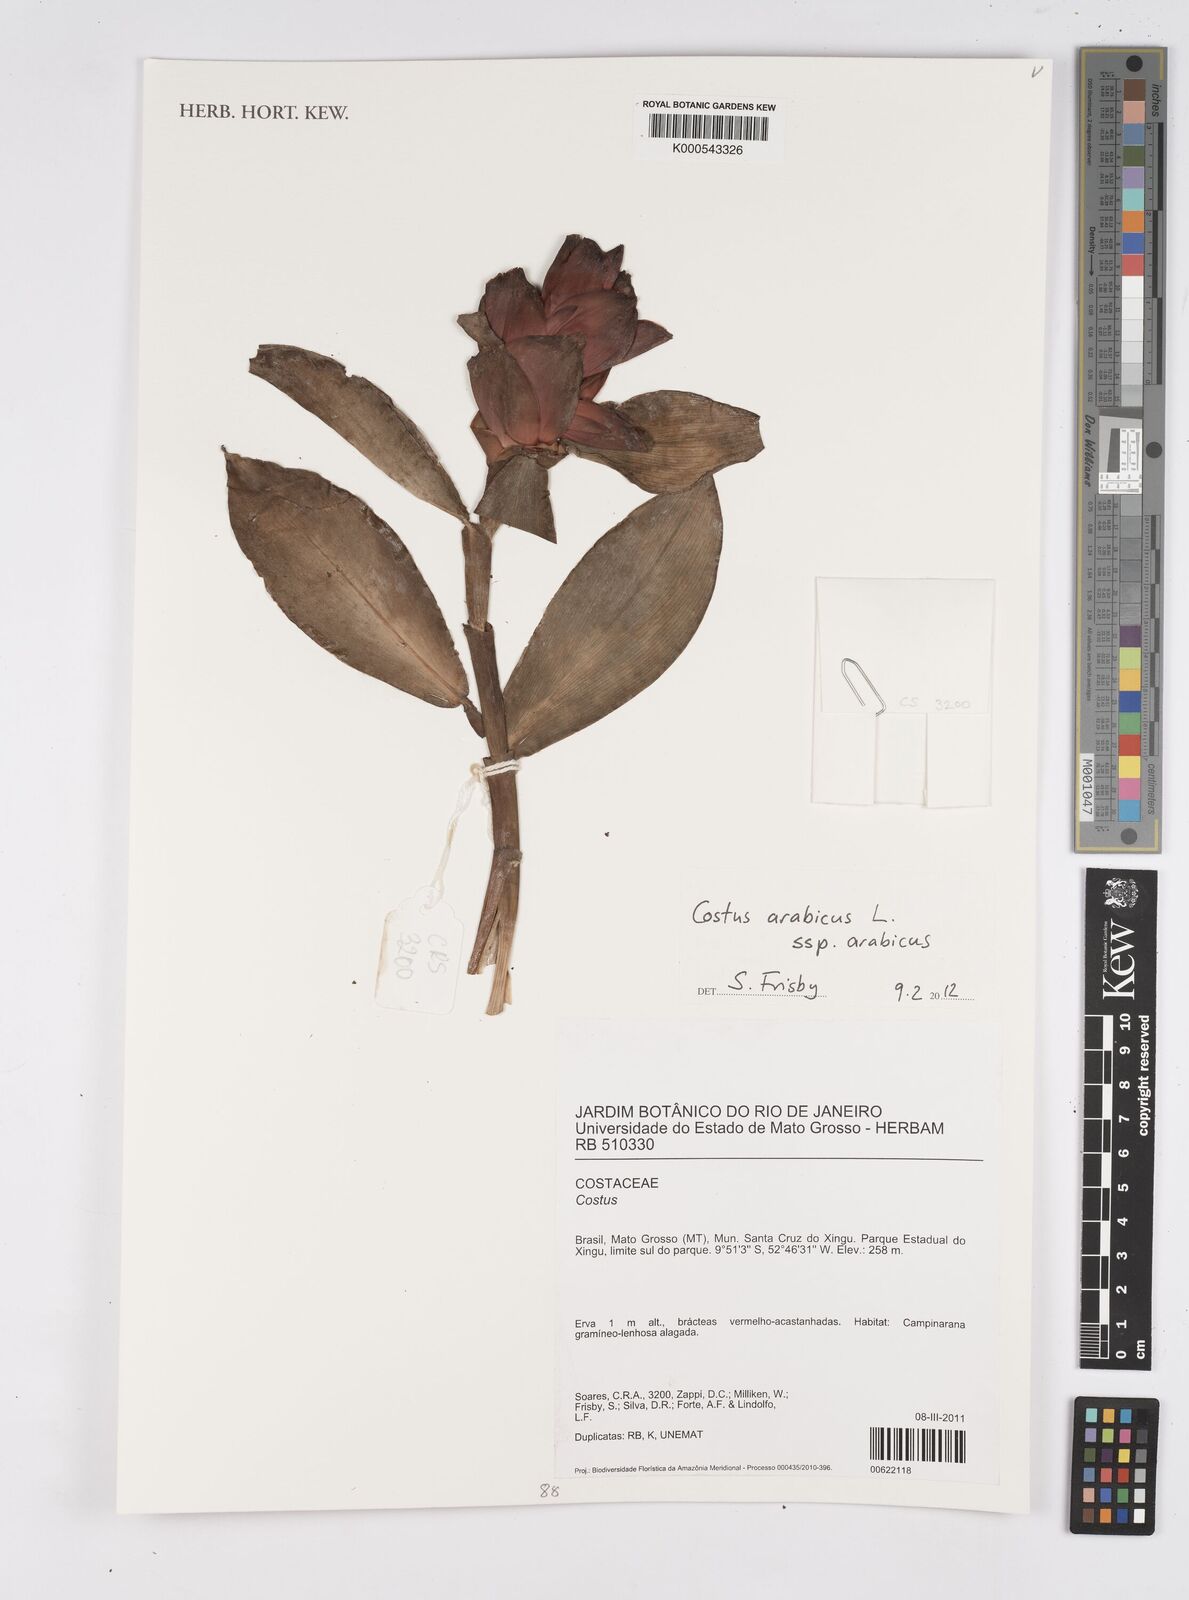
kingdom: Plantae
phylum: Tracheophyta
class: Liliopsida
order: Zingiberales
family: Costaceae
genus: Costus
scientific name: Costus arabicus
